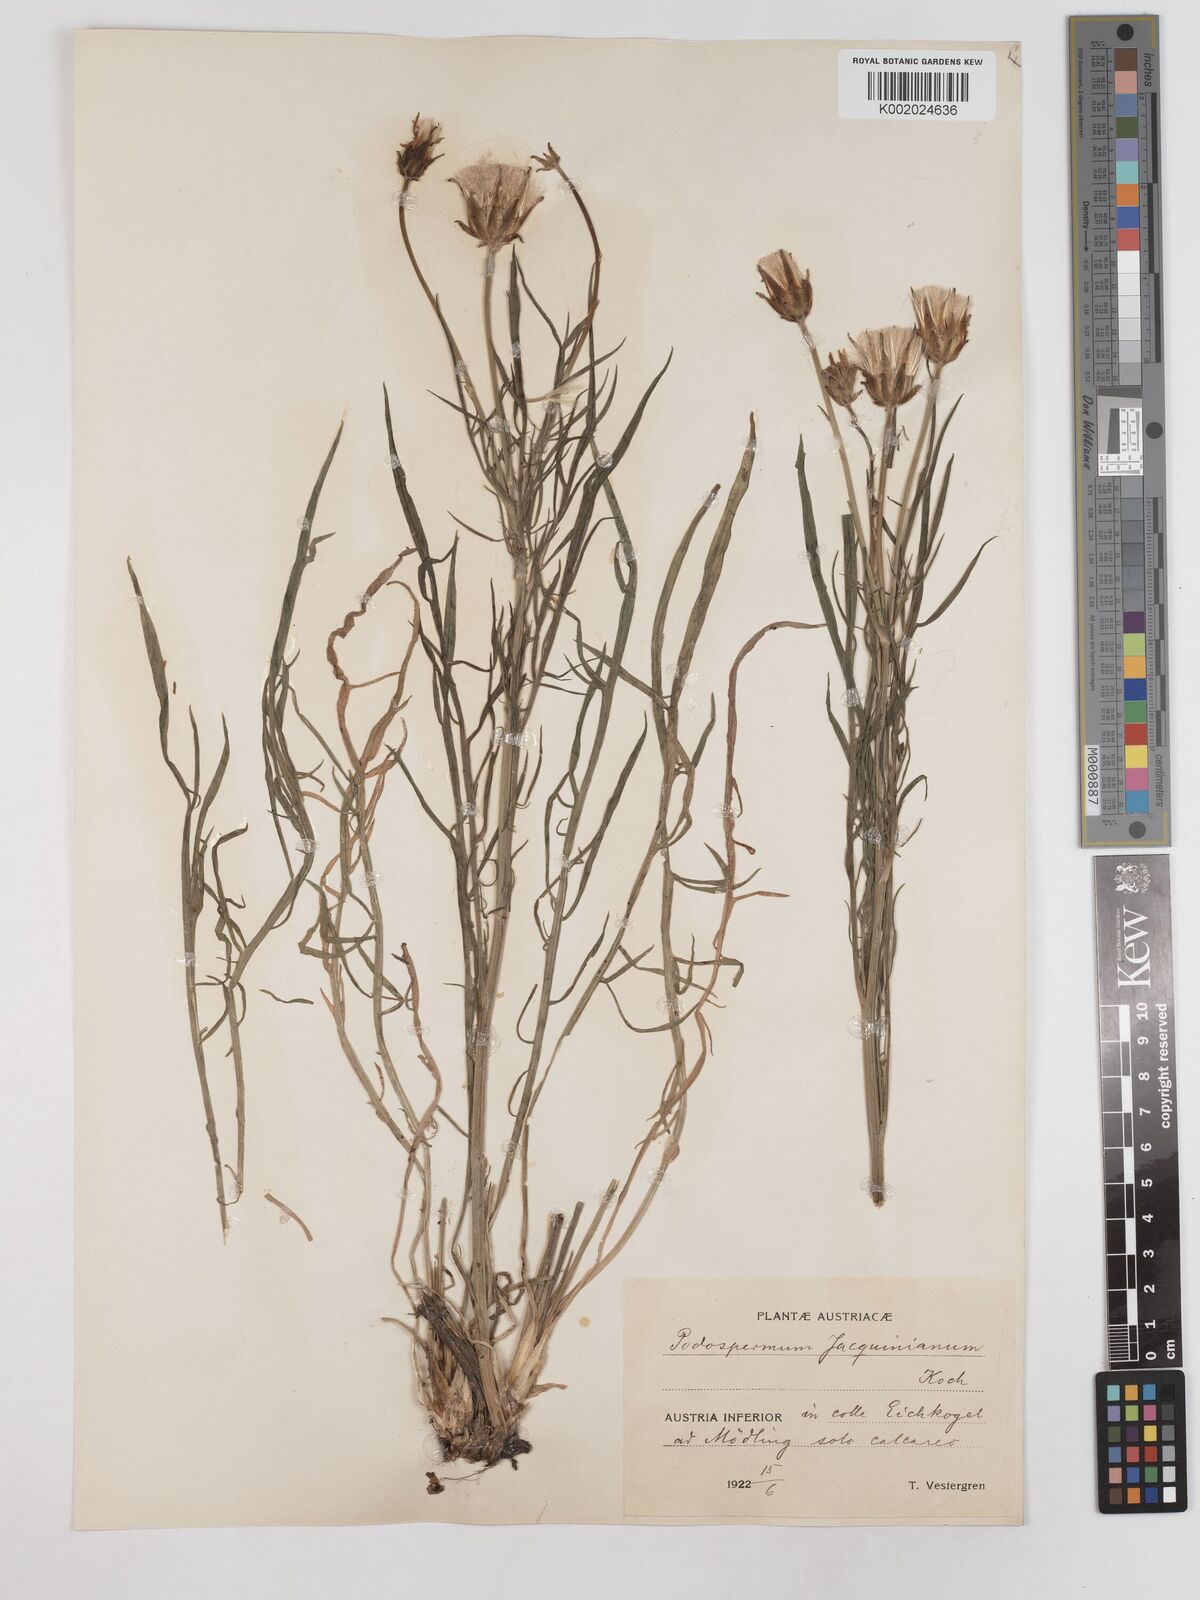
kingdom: Plantae
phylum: Tracheophyta
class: Magnoliopsida
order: Asterales
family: Asteraceae
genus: Scorzonera
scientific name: Scorzonera cana
